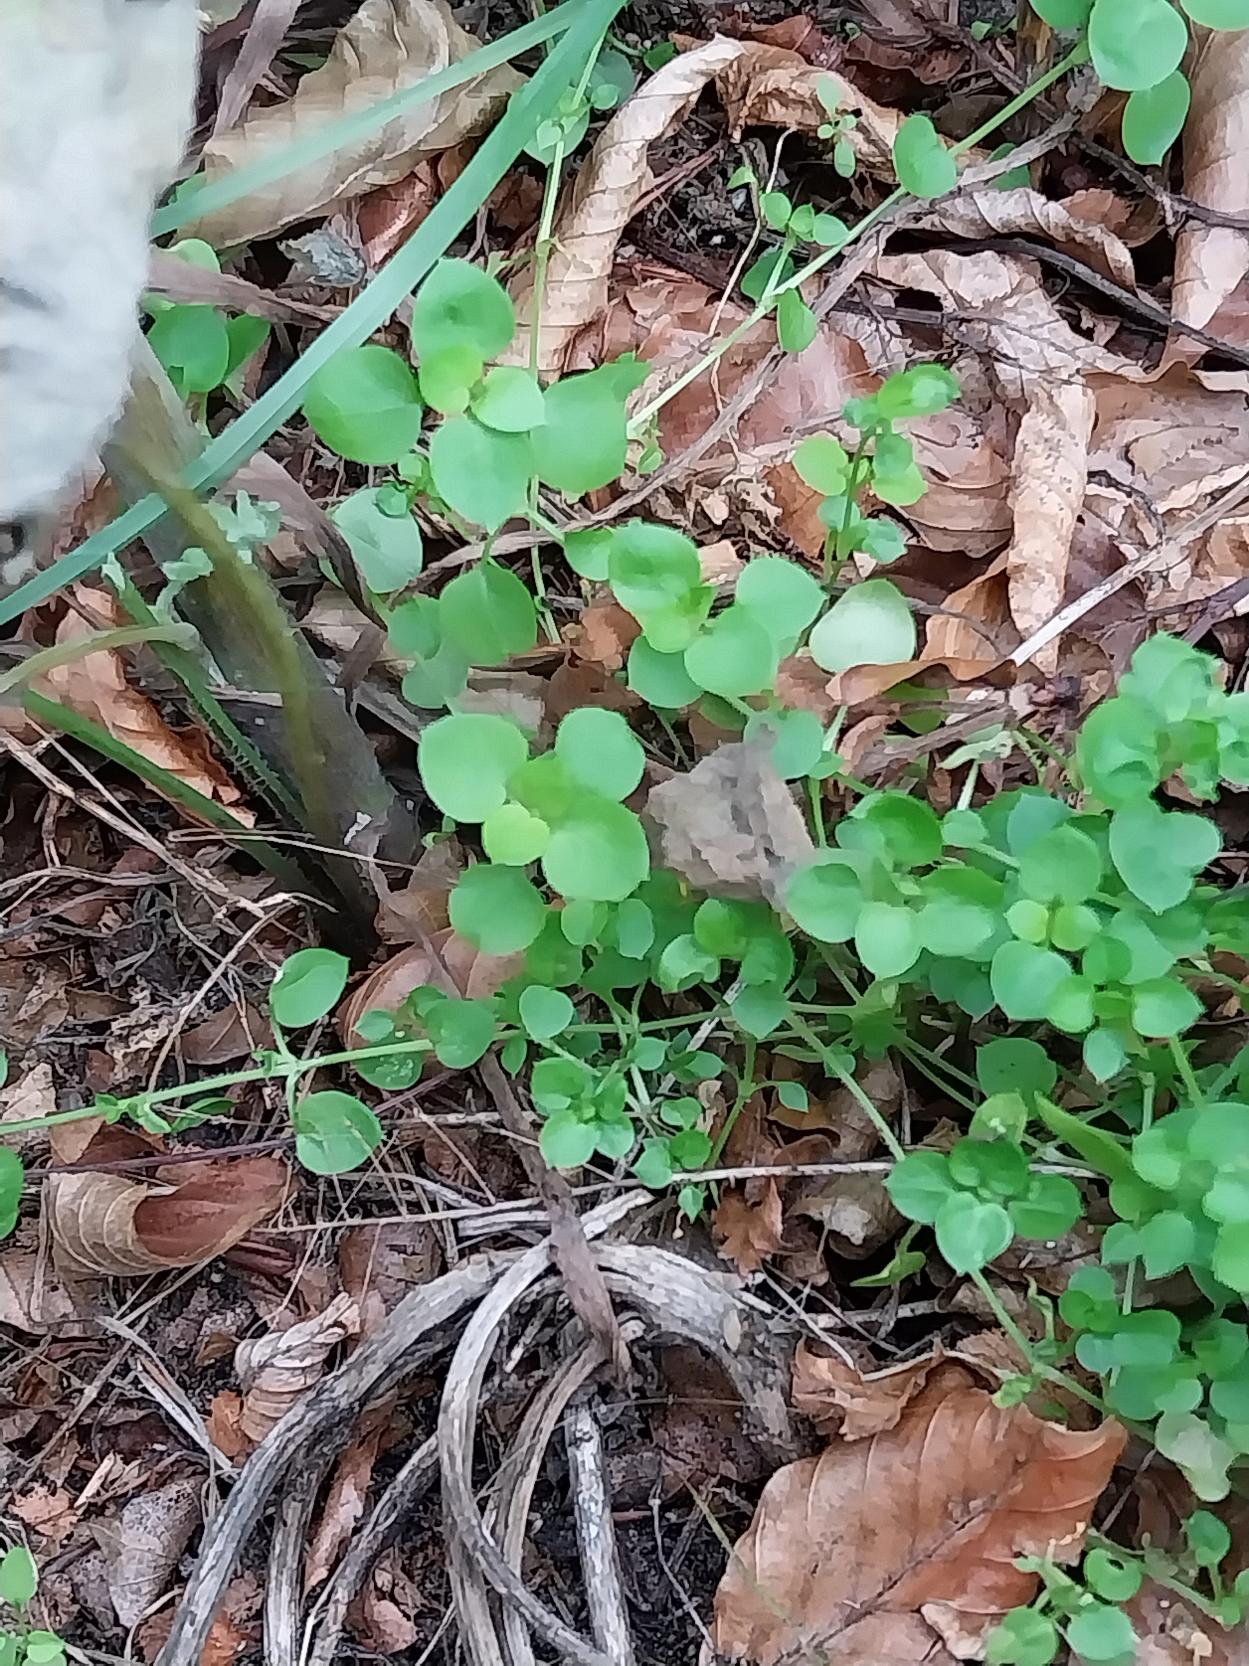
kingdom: Plantae
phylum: Tracheophyta
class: Magnoliopsida
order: Caryophyllales
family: Caryophyllaceae
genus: Stellaria
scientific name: Stellaria media
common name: Almindelig fuglegræs
